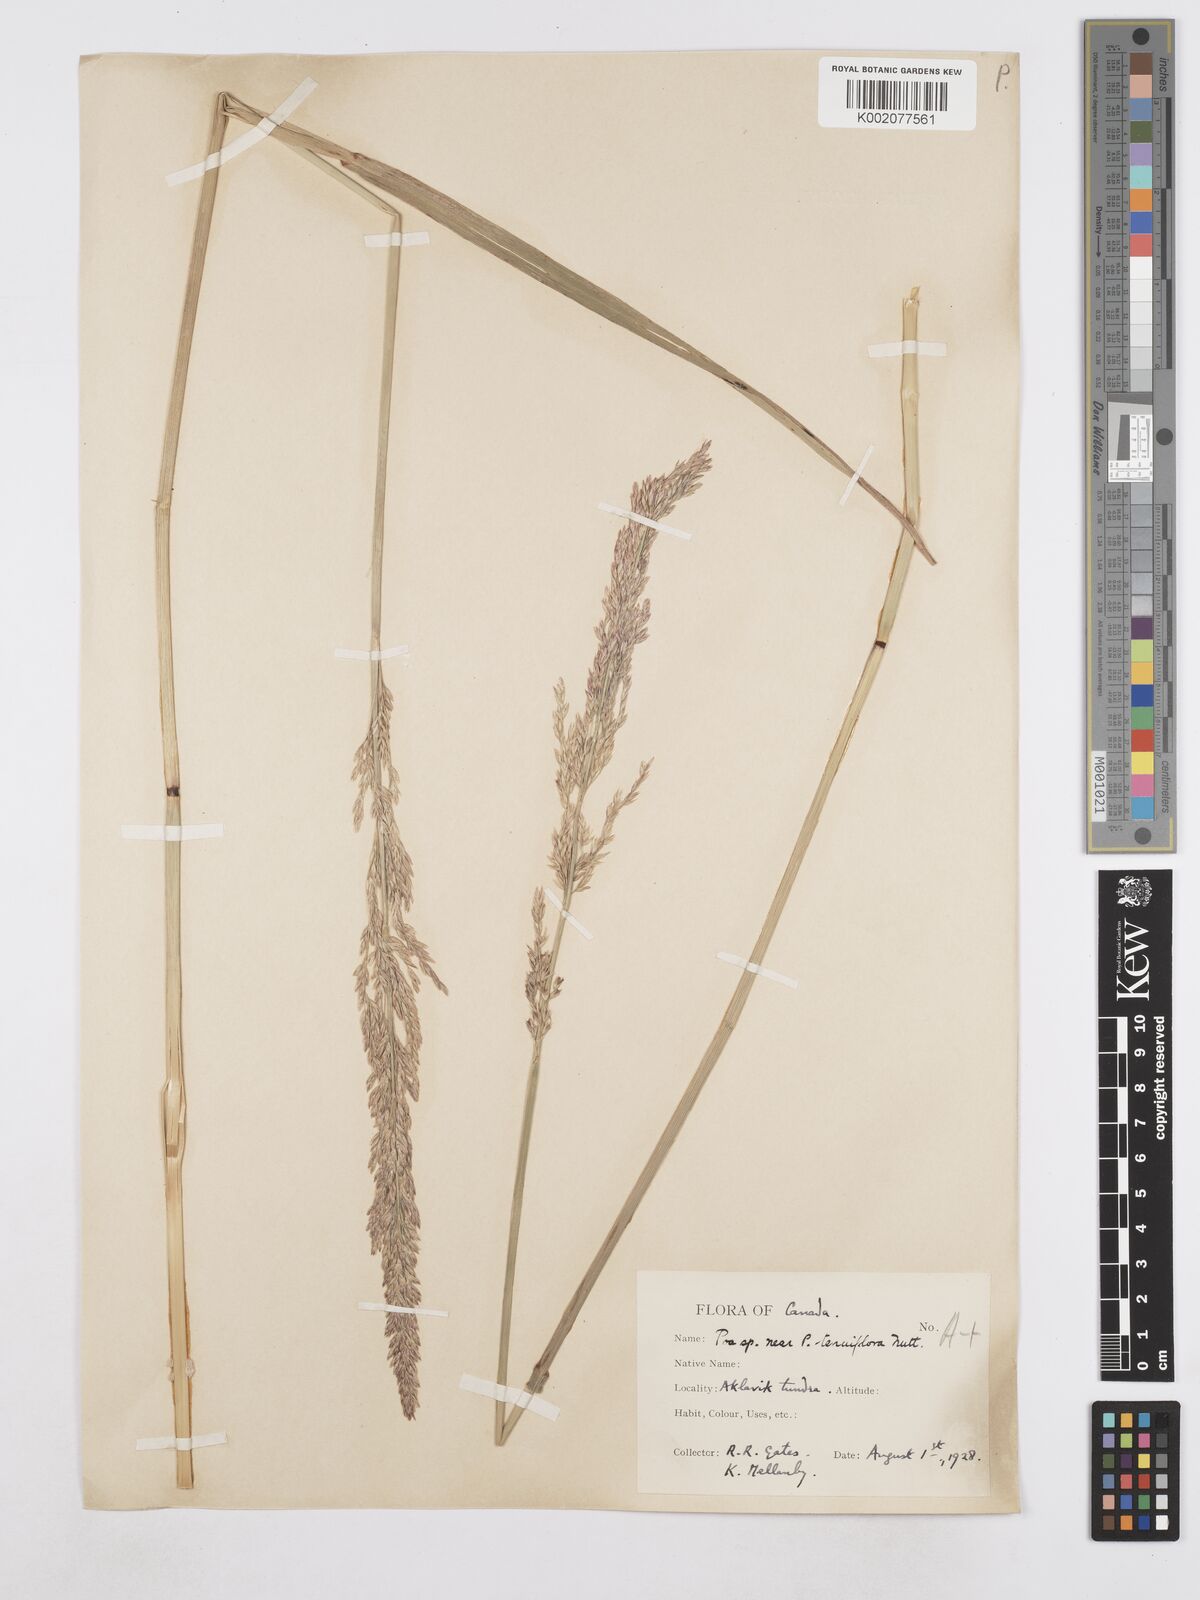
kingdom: Plantae
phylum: Tracheophyta
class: Liliopsida
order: Poales
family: Poaceae
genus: Poa
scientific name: Poa secunda
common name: Sandberg bluegrass
